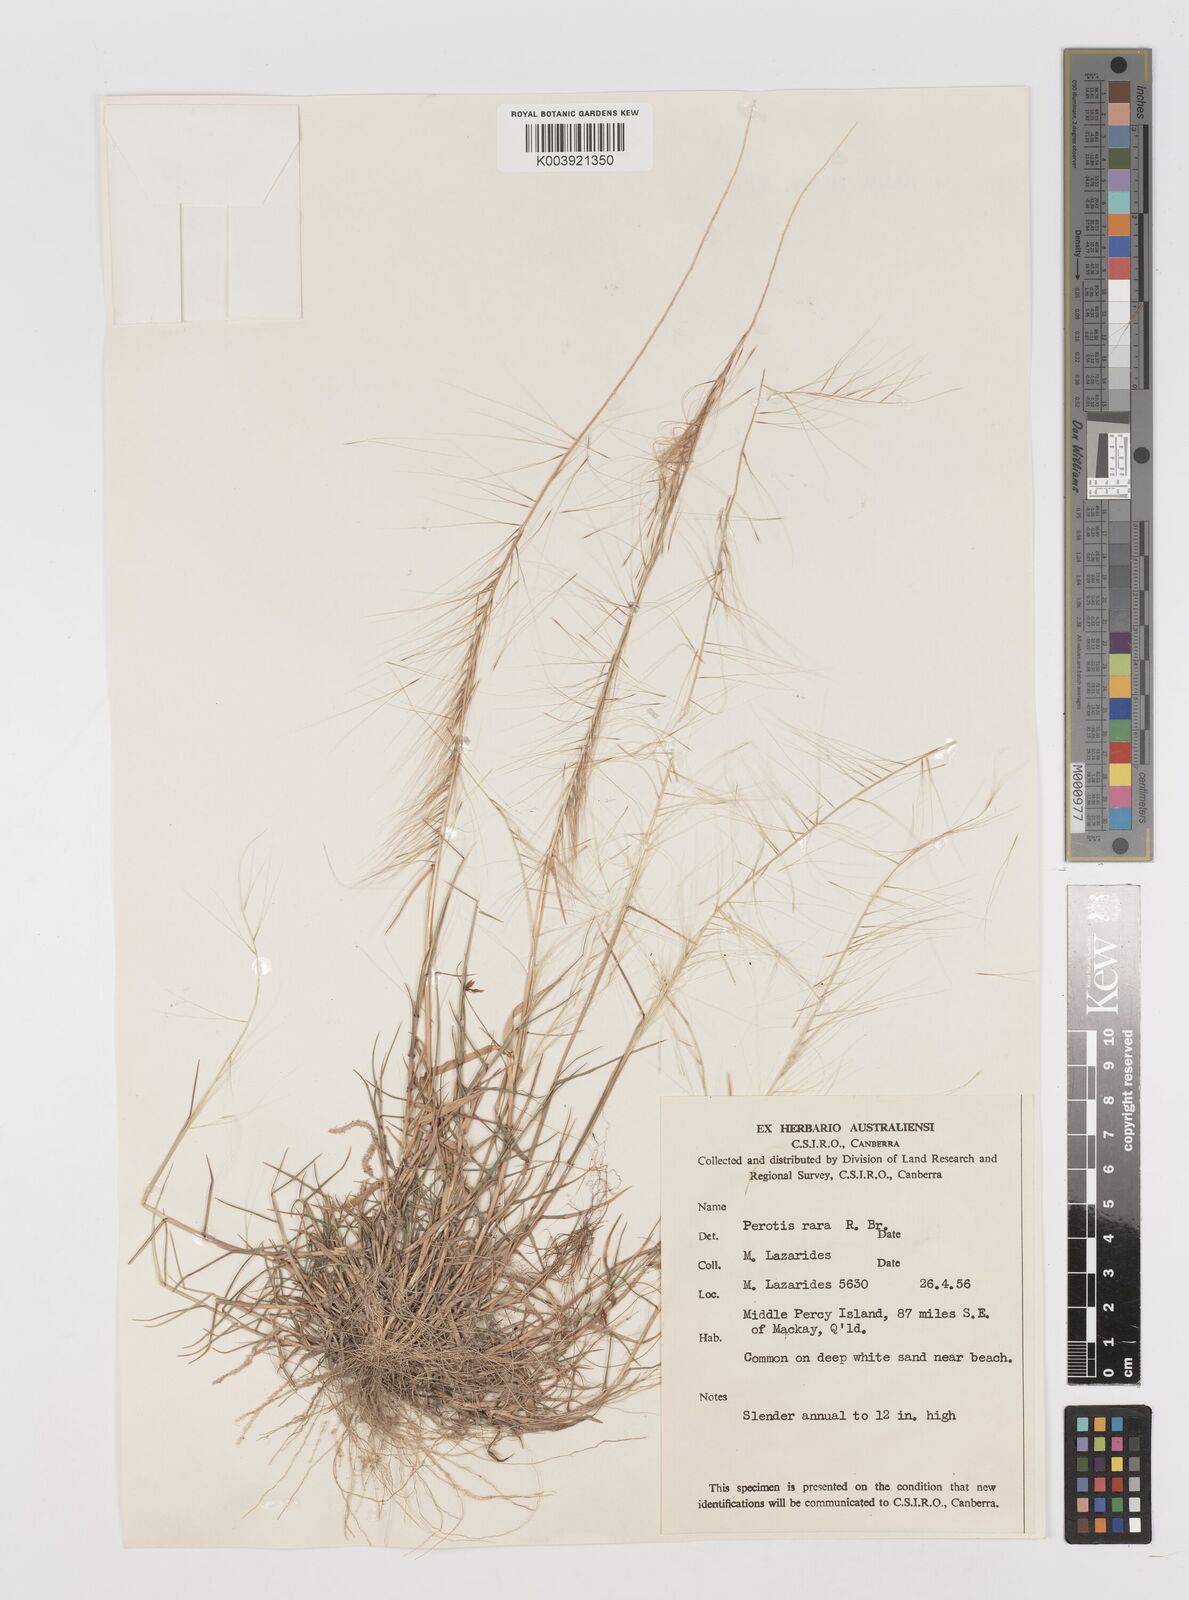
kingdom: Plantae
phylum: Tracheophyta
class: Liliopsida
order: Poales
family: Poaceae
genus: Perotis
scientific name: Perotis rara
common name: Comet grass
